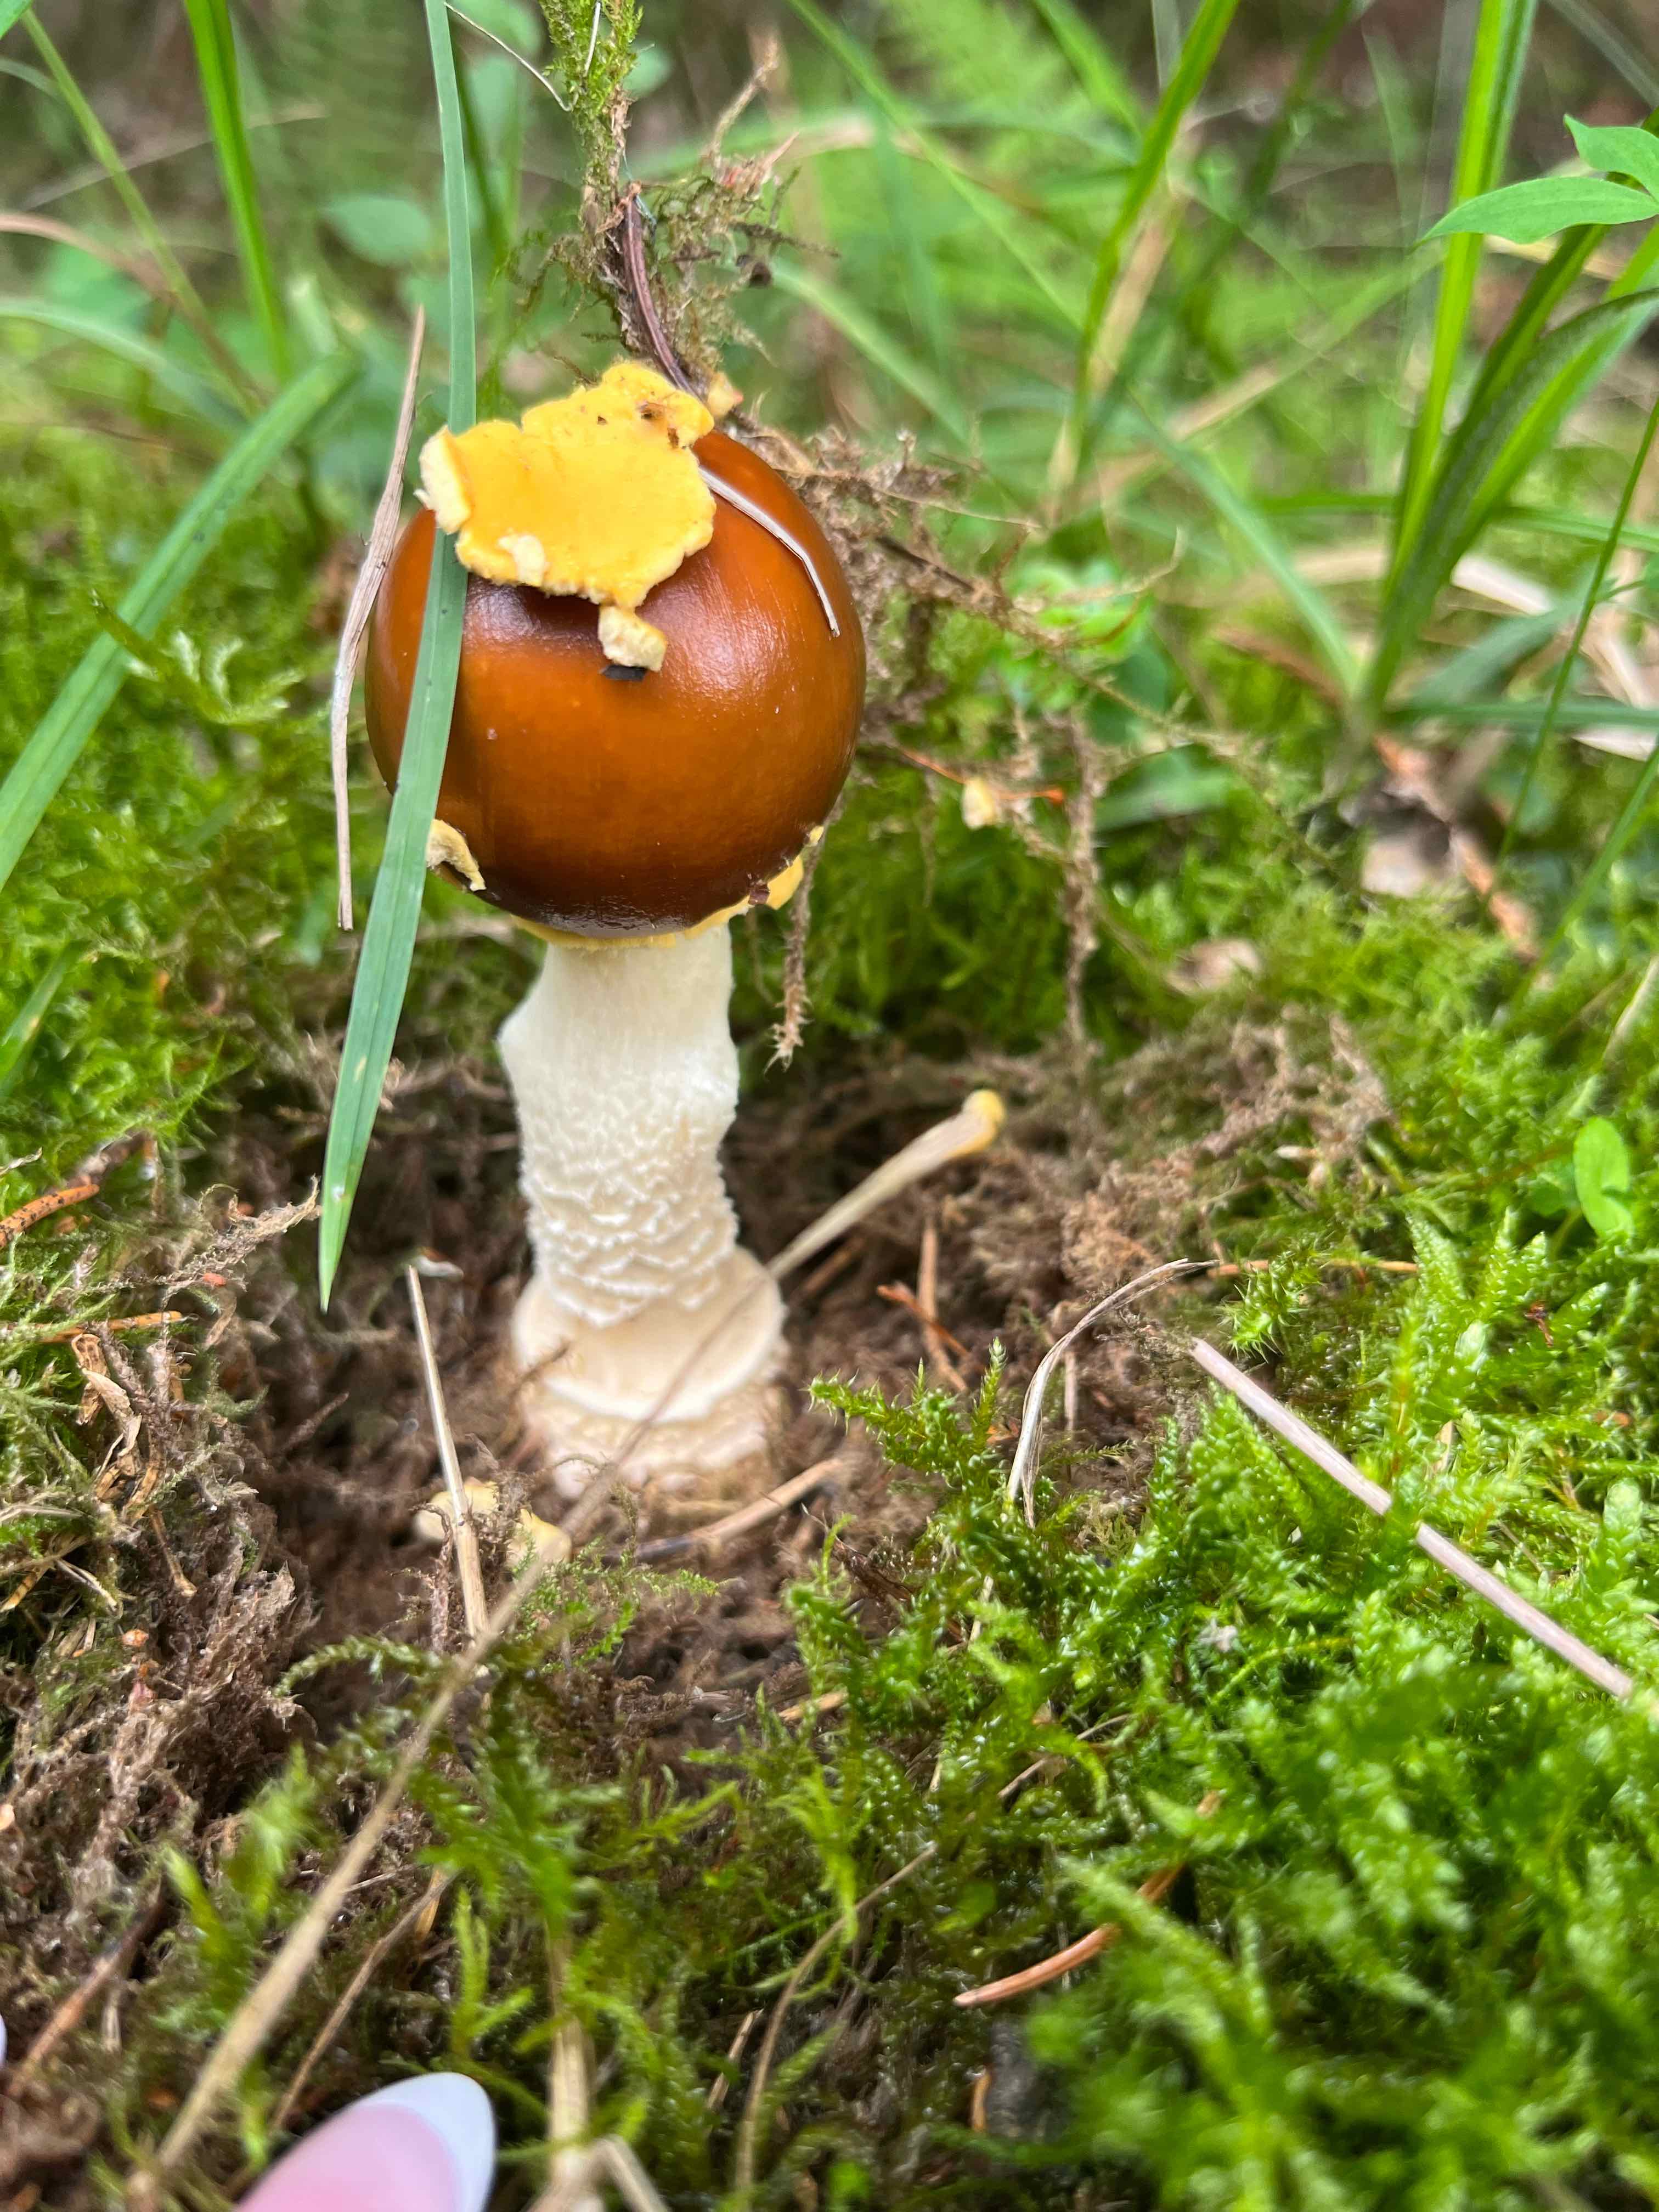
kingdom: Fungi
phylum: Basidiomycota
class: Agaricomycetes
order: Agaricales
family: Amanitaceae
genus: Amanita
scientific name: Amanita regalis
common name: brun fluesvamp
